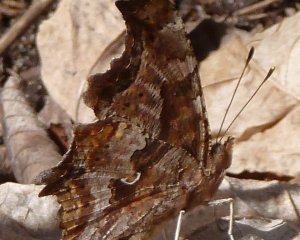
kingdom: Animalia
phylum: Arthropoda
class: Insecta
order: Lepidoptera
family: Nymphalidae
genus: Polygonia
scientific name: Polygonia comma
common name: Eastern Comma
